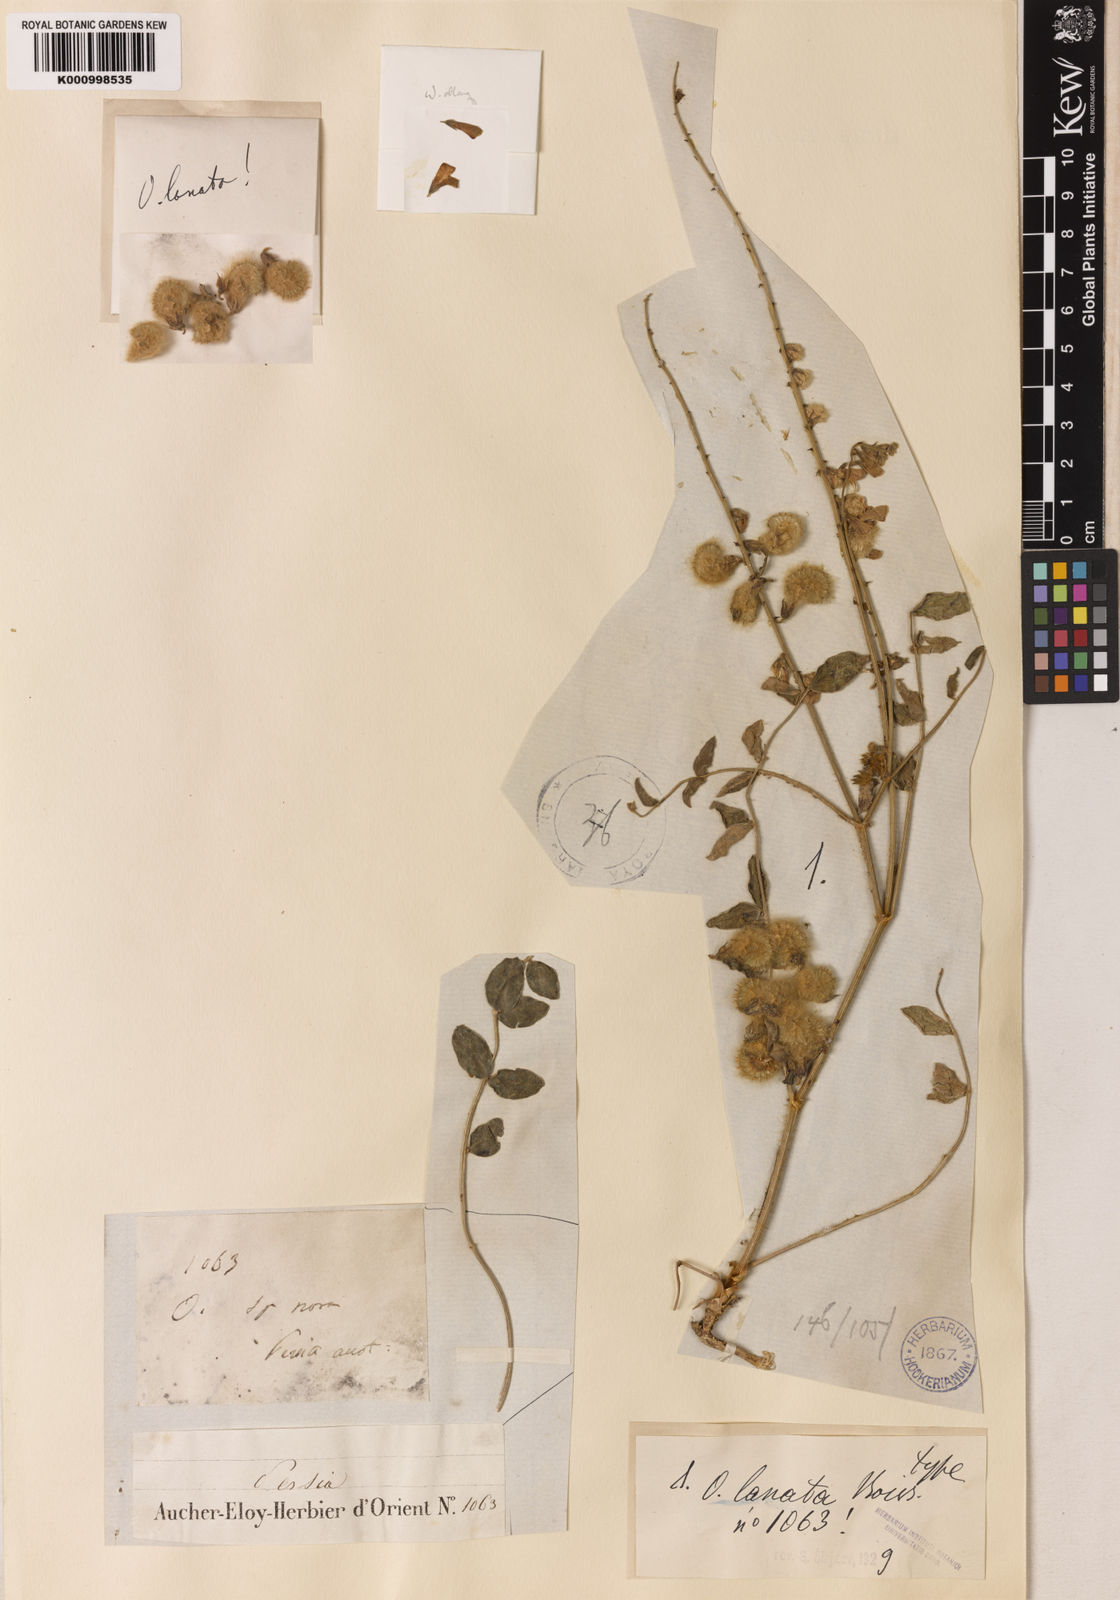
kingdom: Plantae
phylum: Tracheophyta
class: Magnoliopsida
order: Fabales
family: Fabaceae
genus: Onobrychis
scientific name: Onobrychis
